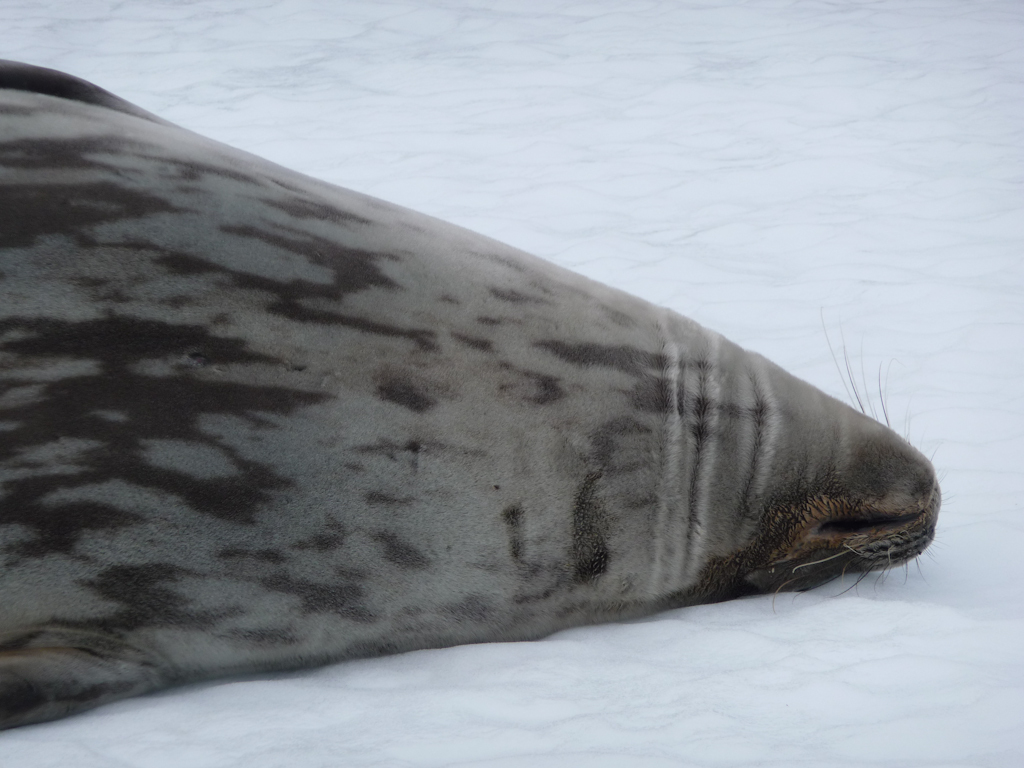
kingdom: Animalia
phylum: Chordata
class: Mammalia
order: Carnivora
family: Phocidae
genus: Leptonychotes
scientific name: Leptonychotes weddellii
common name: Weddell Seal
